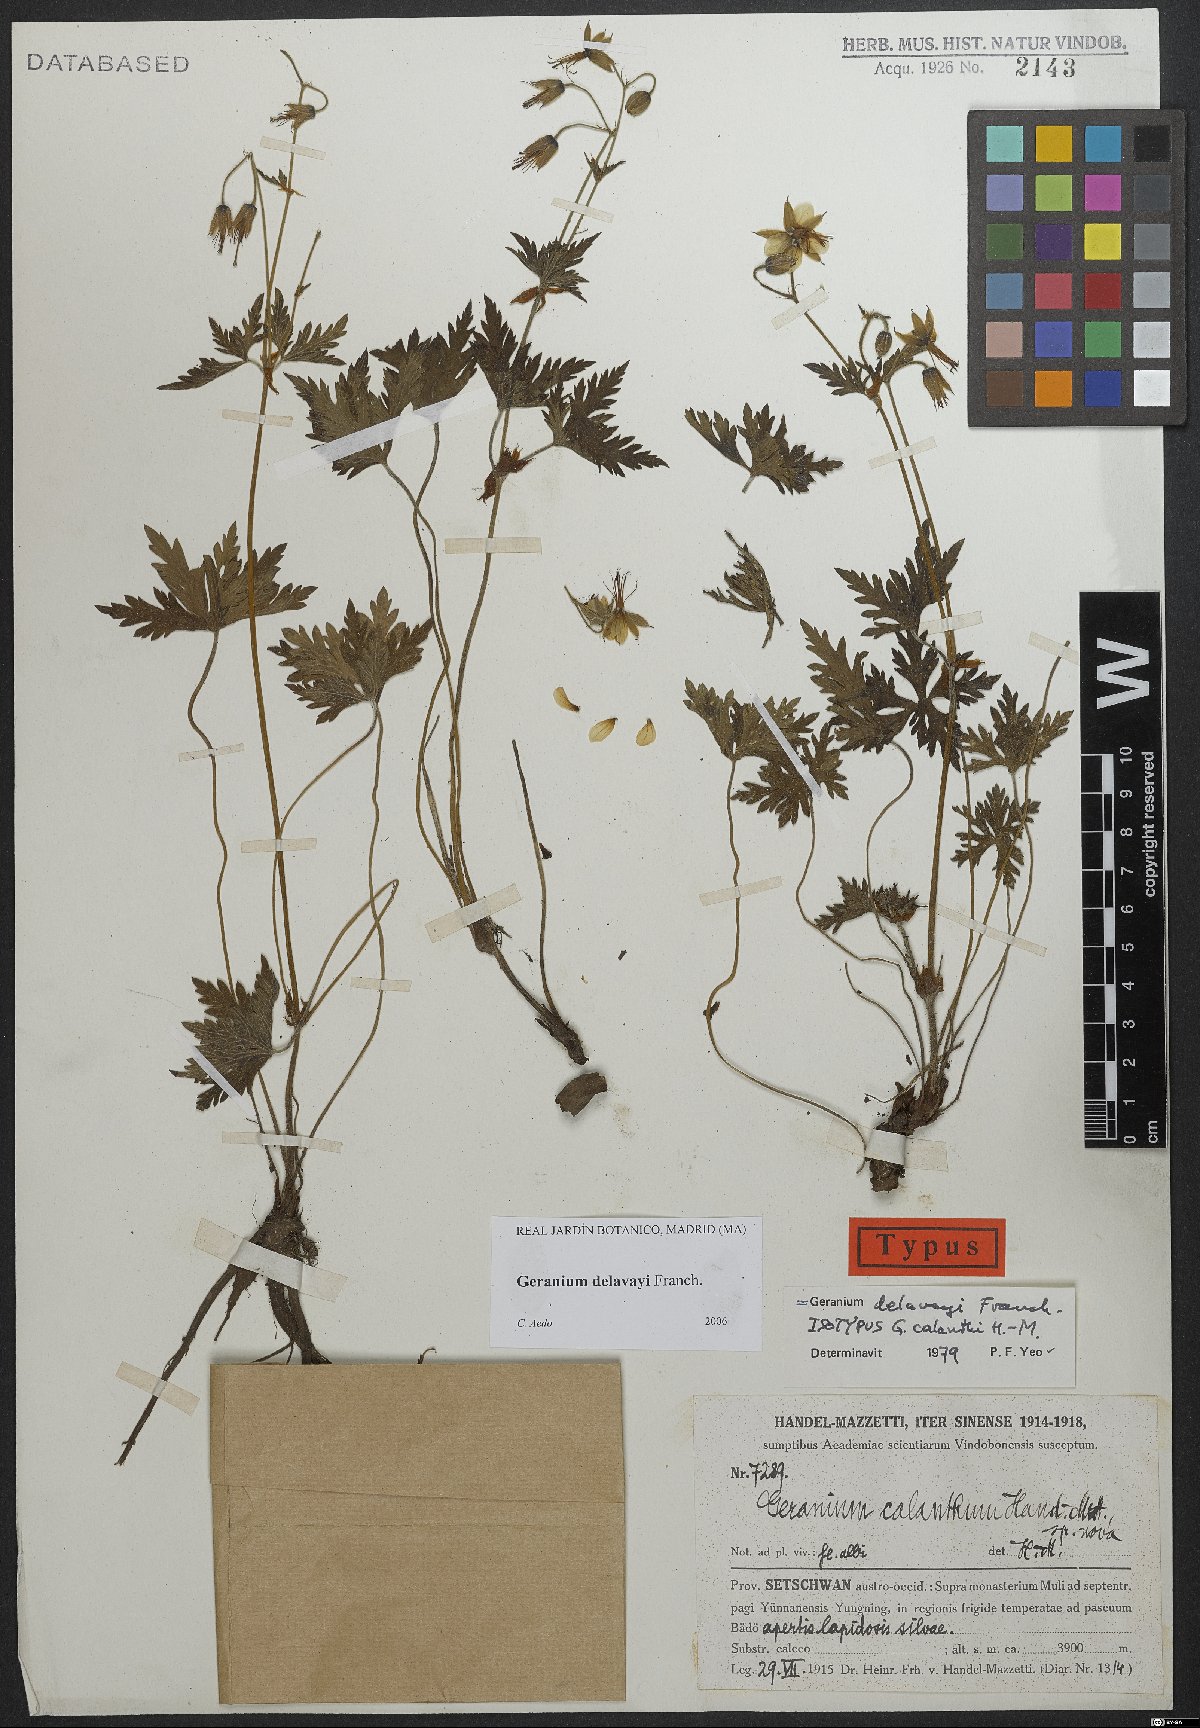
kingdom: Plantae
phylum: Tracheophyta
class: Magnoliopsida
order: Geraniales
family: Geraniaceae
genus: Geranium
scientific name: Geranium delavayi
